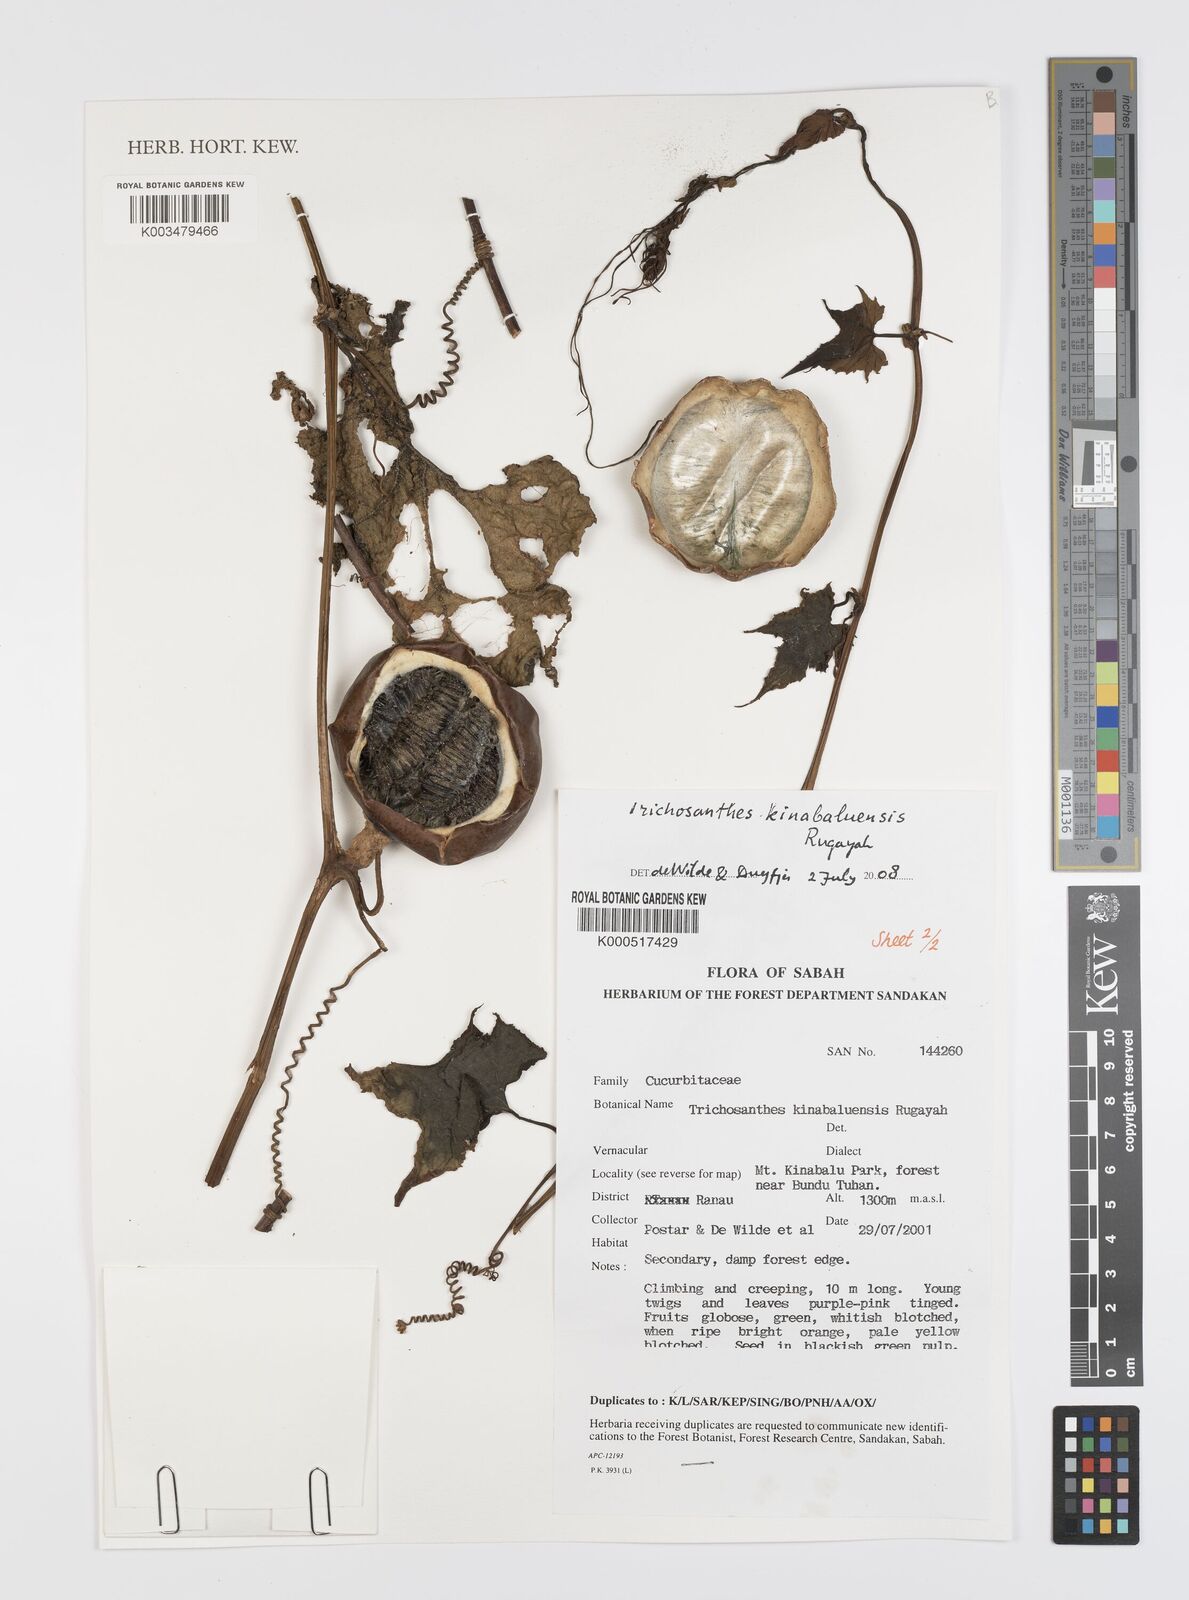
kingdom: Plantae
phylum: Tracheophyta
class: Magnoliopsida
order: Cucurbitales
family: Cucurbitaceae
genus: Trichosanthes
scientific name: Trichosanthes kinabaluensis
